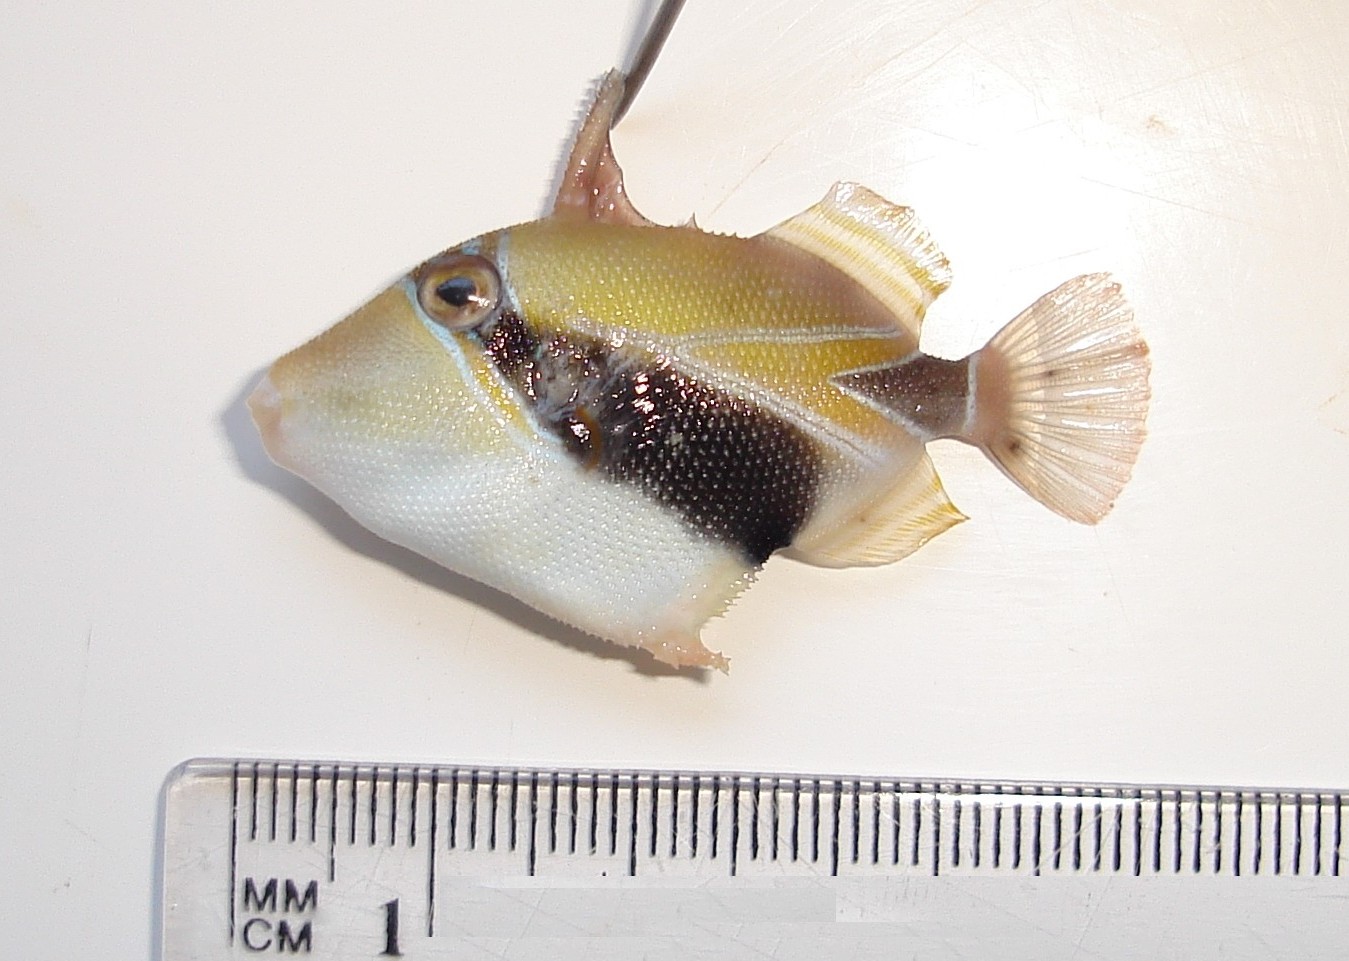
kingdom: Animalia
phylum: Chordata
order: Tetraodontiformes
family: Balistidae
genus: Rhinecanthus
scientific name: Rhinecanthus rectangulus
